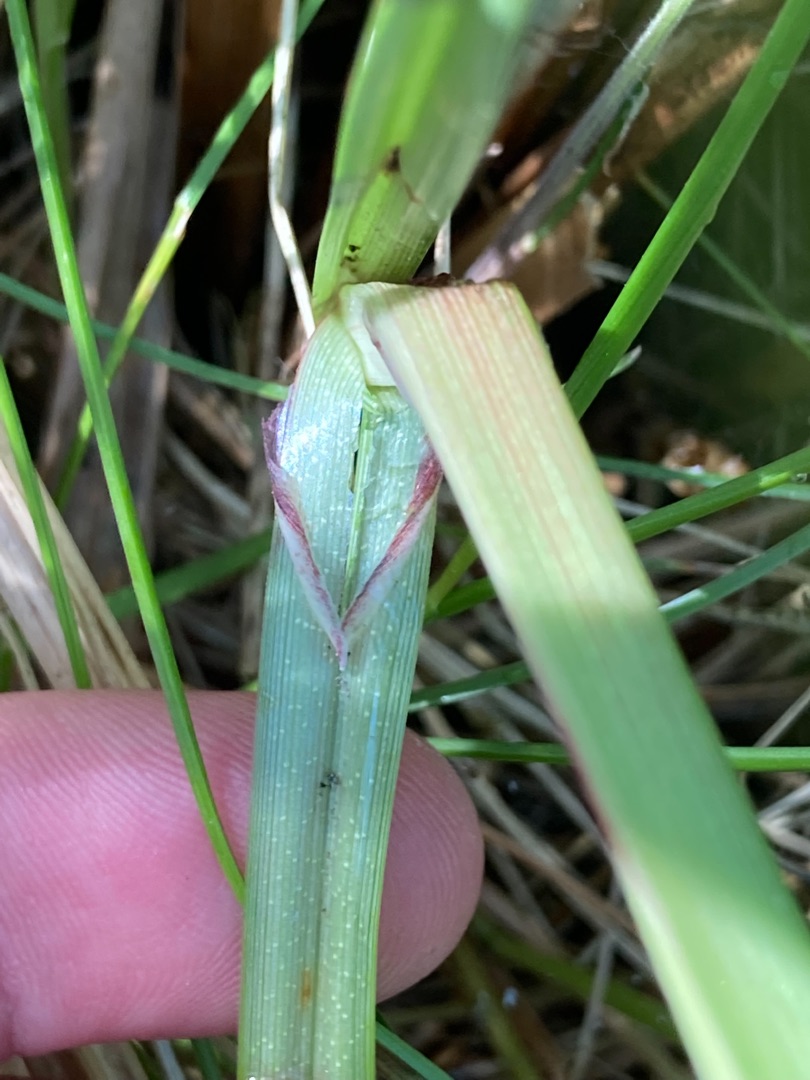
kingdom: Plantae
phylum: Tracheophyta
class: Liliopsida
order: Poales
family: Cyperaceae
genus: Carex
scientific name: Carex acuta
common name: Nikkende star
